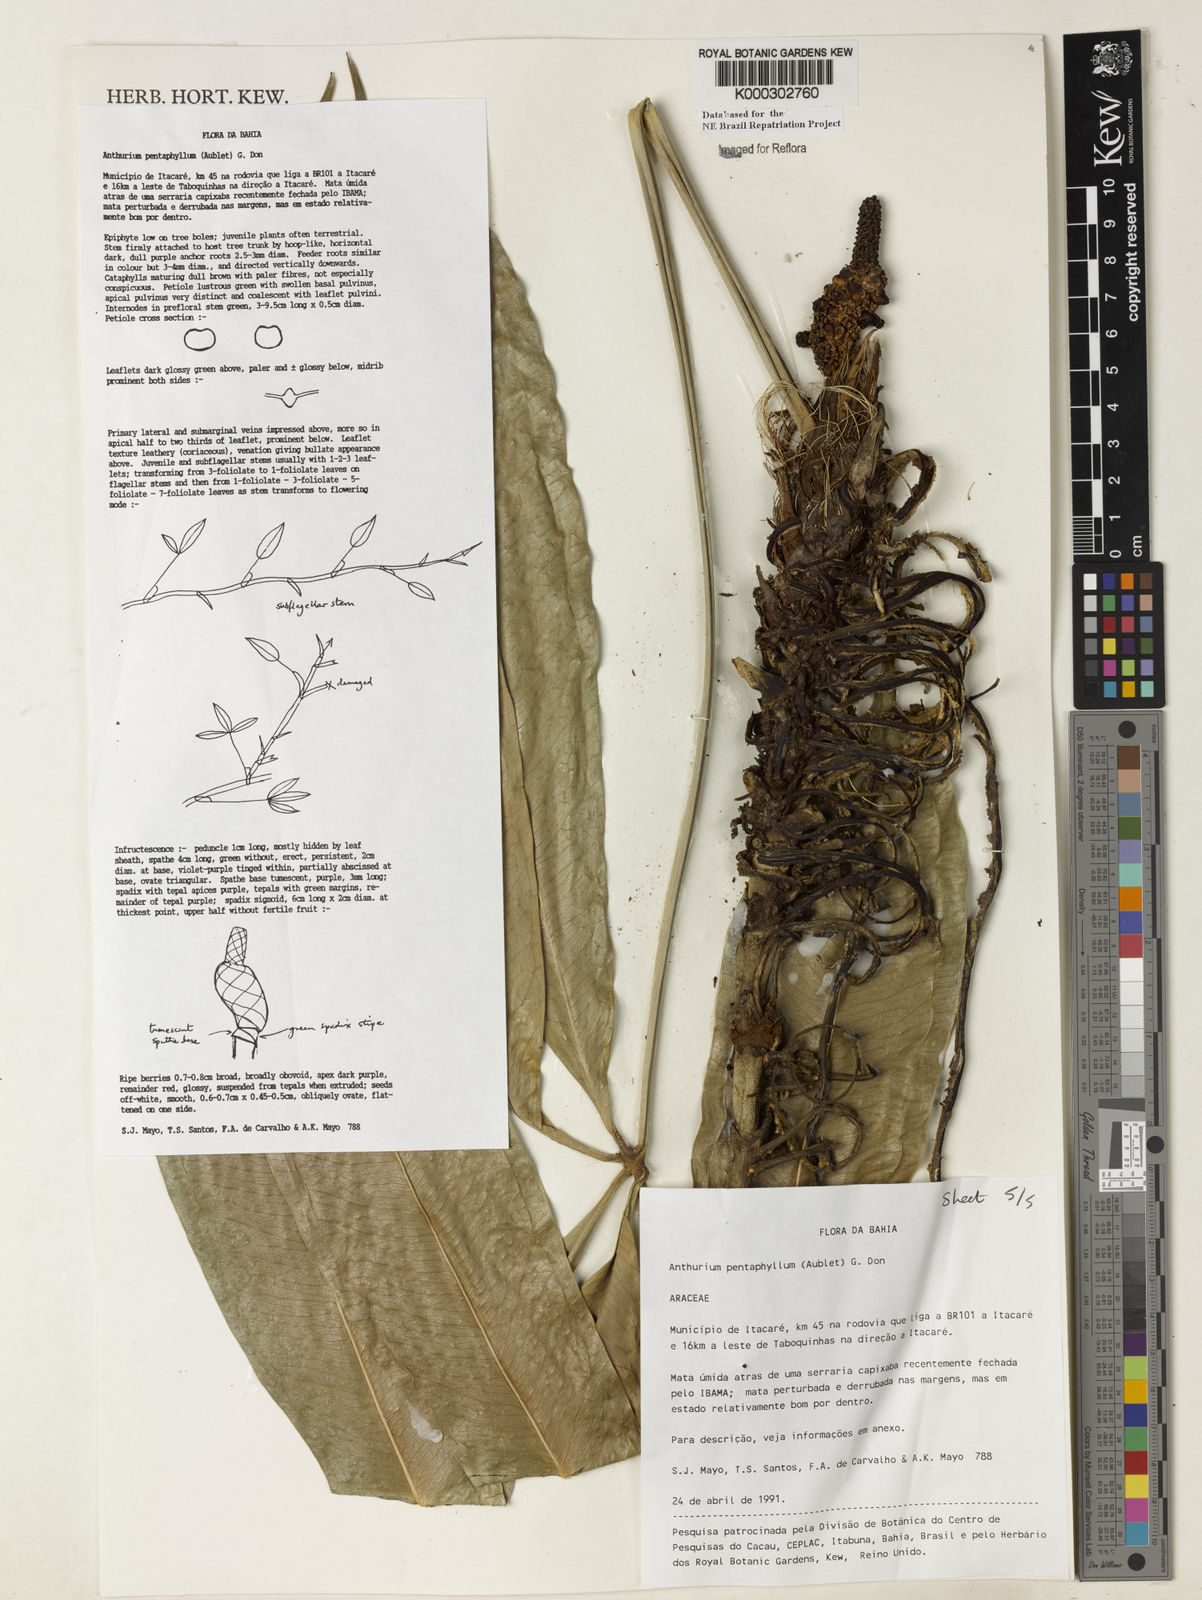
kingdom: Plantae
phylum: Tracheophyta
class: Liliopsida
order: Alismatales
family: Araceae
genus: Anthurium
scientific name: Anthurium pentaphyllum
